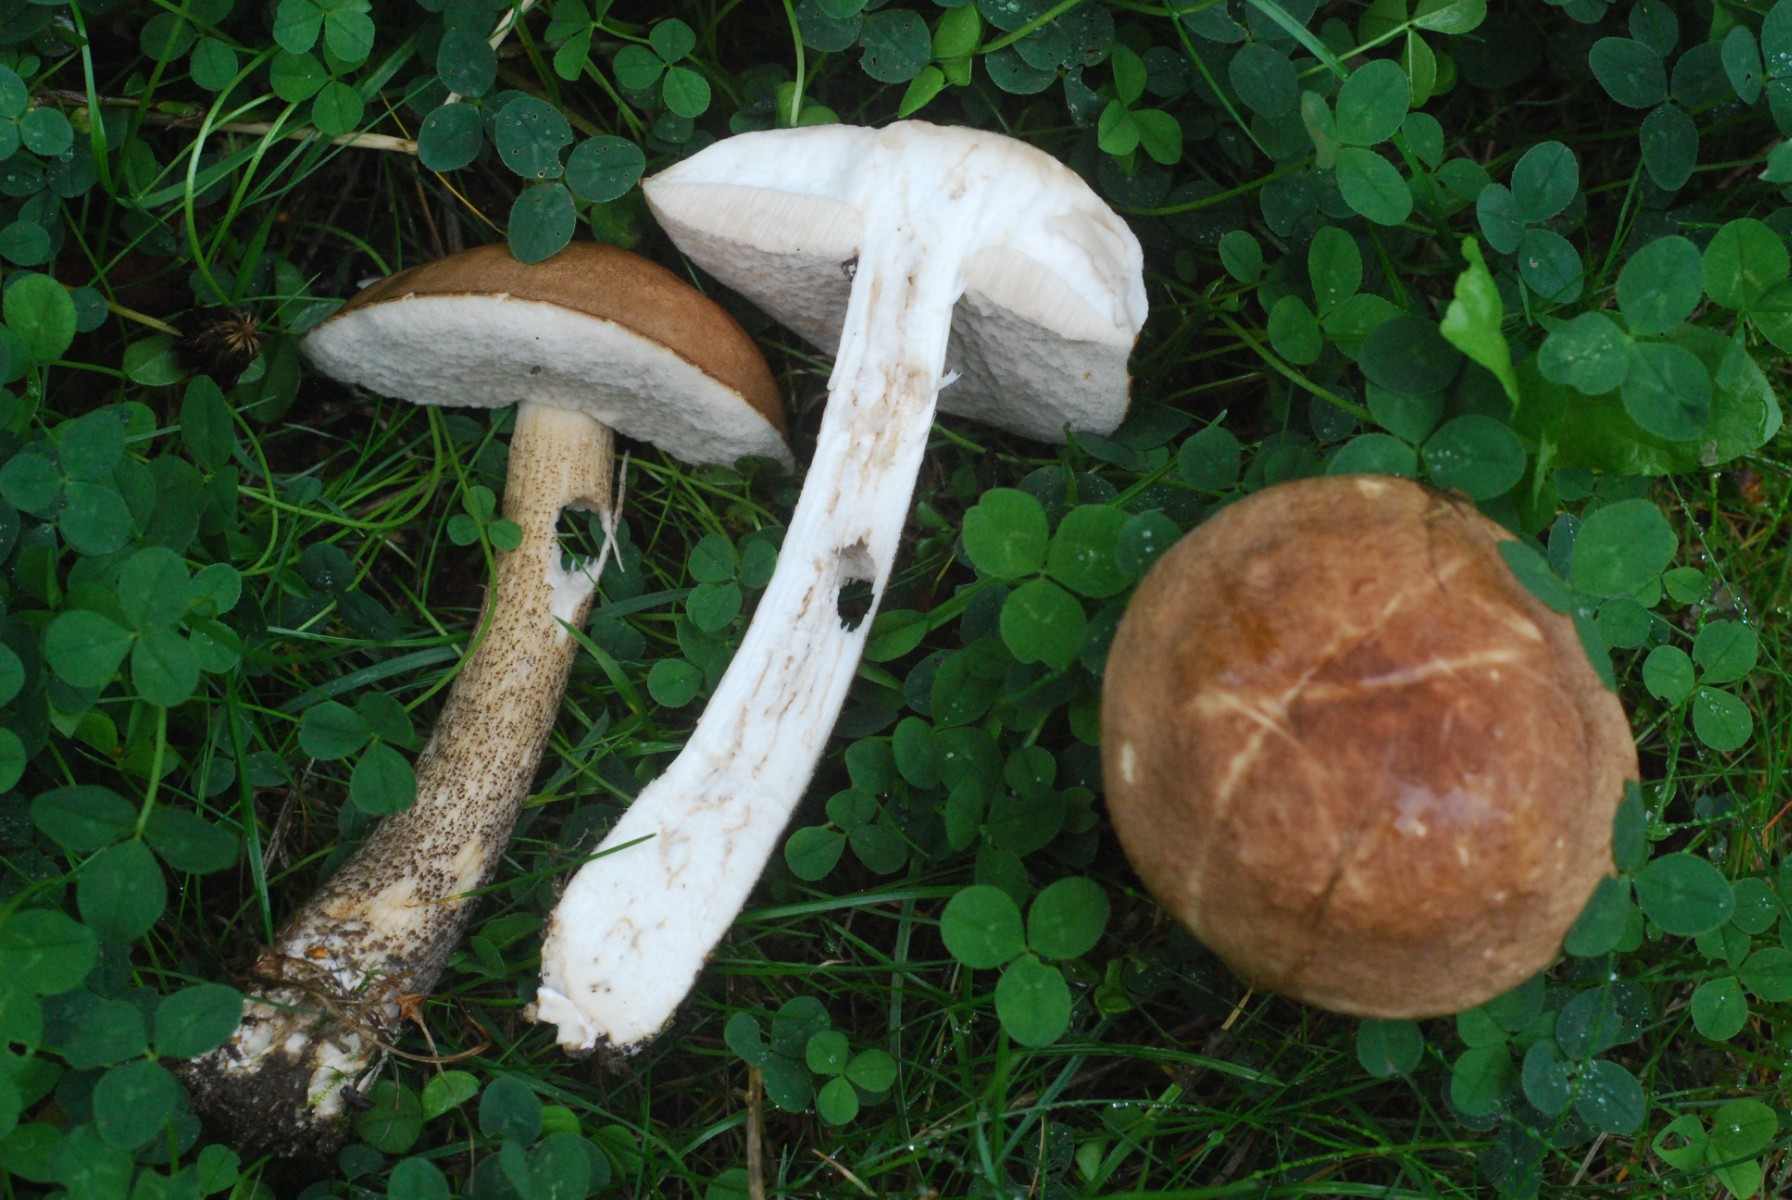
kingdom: Fungi
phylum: Basidiomycota
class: Agaricomycetes
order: Boletales
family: Boletaceae
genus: Leccinum
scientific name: Leccinum scabrum
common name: brun skælrørhat
